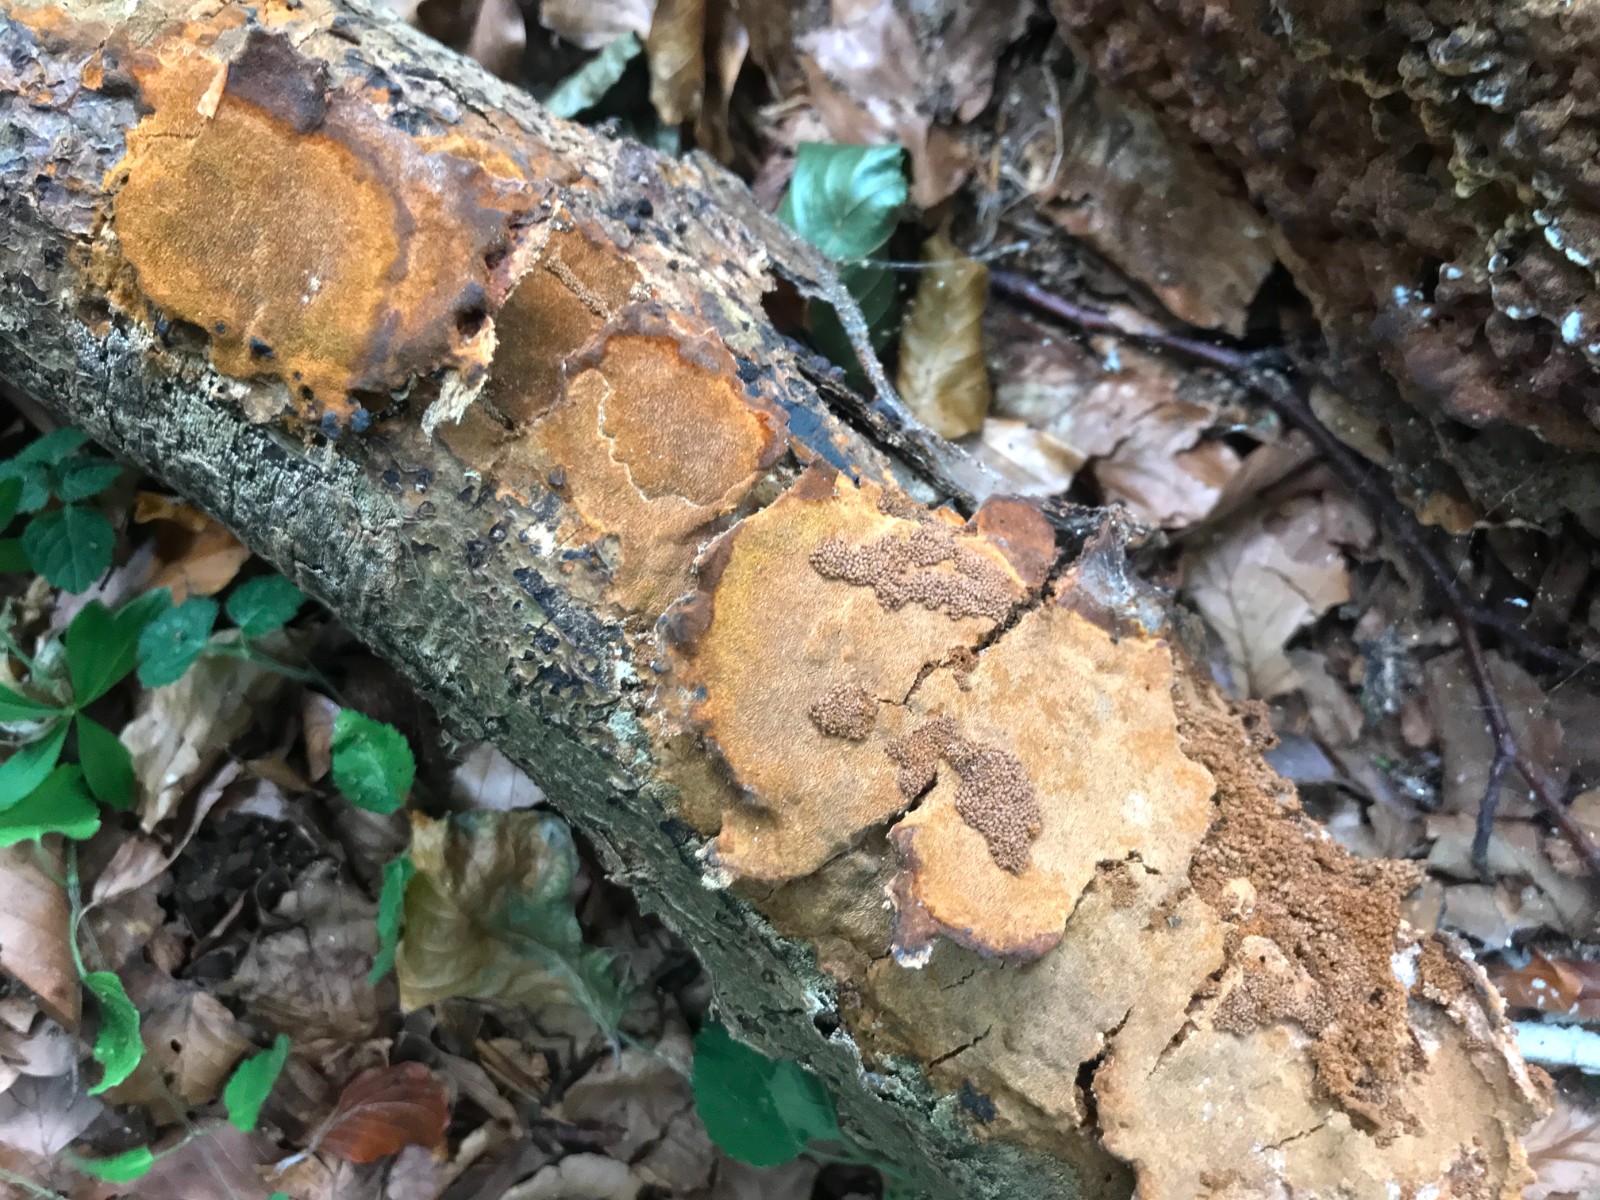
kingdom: Fungi
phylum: Basidiomycota
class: Agaricomycetes
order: Hymenochaetales
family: Hymenochaetaceae
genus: Fuscoporia
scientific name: Fuscoporia ferrea
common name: skorpe-ildporesvamp
